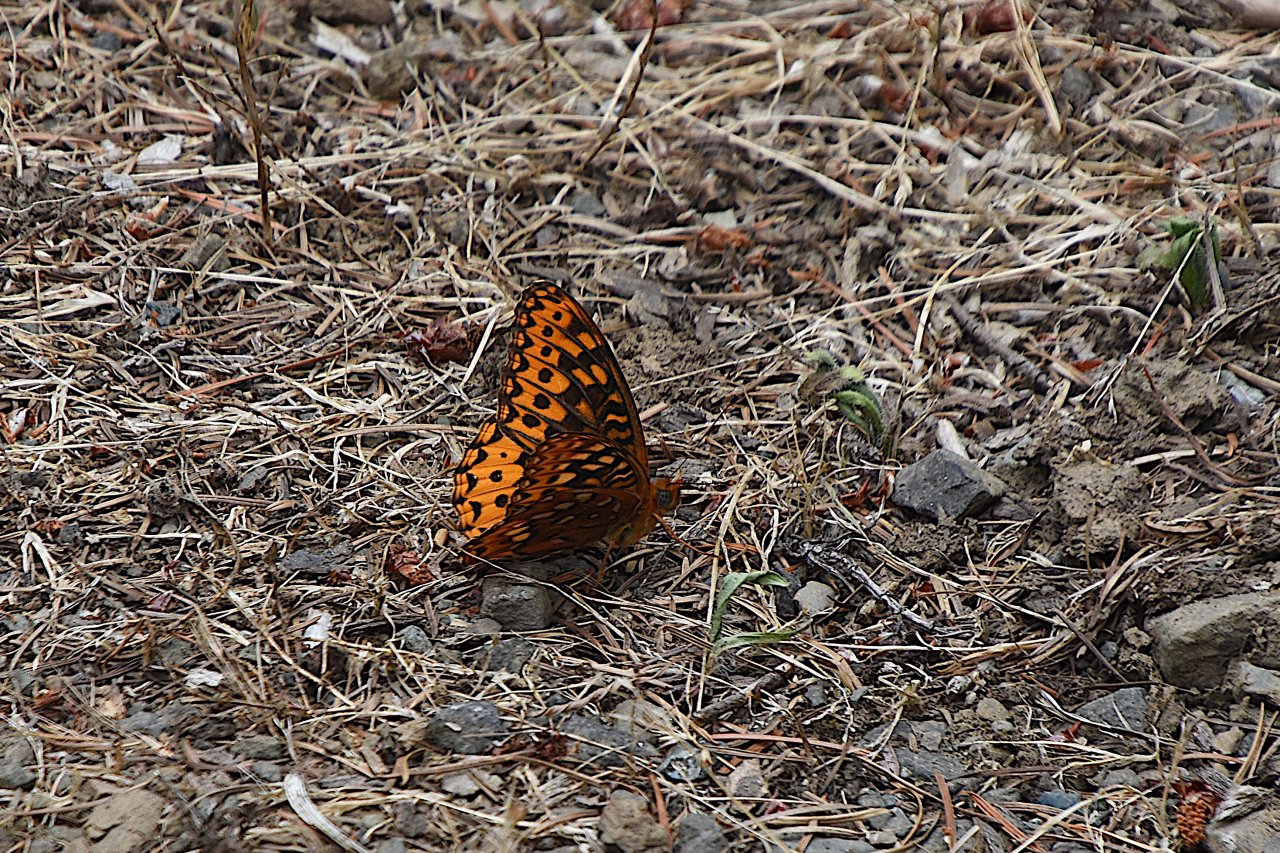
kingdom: Animalia
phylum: Arthropoda
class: Insecta
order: Lepidoptera
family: Nymphalidae
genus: Speyeria
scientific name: Speyeria cybele
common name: Great Spangled Fritillary
